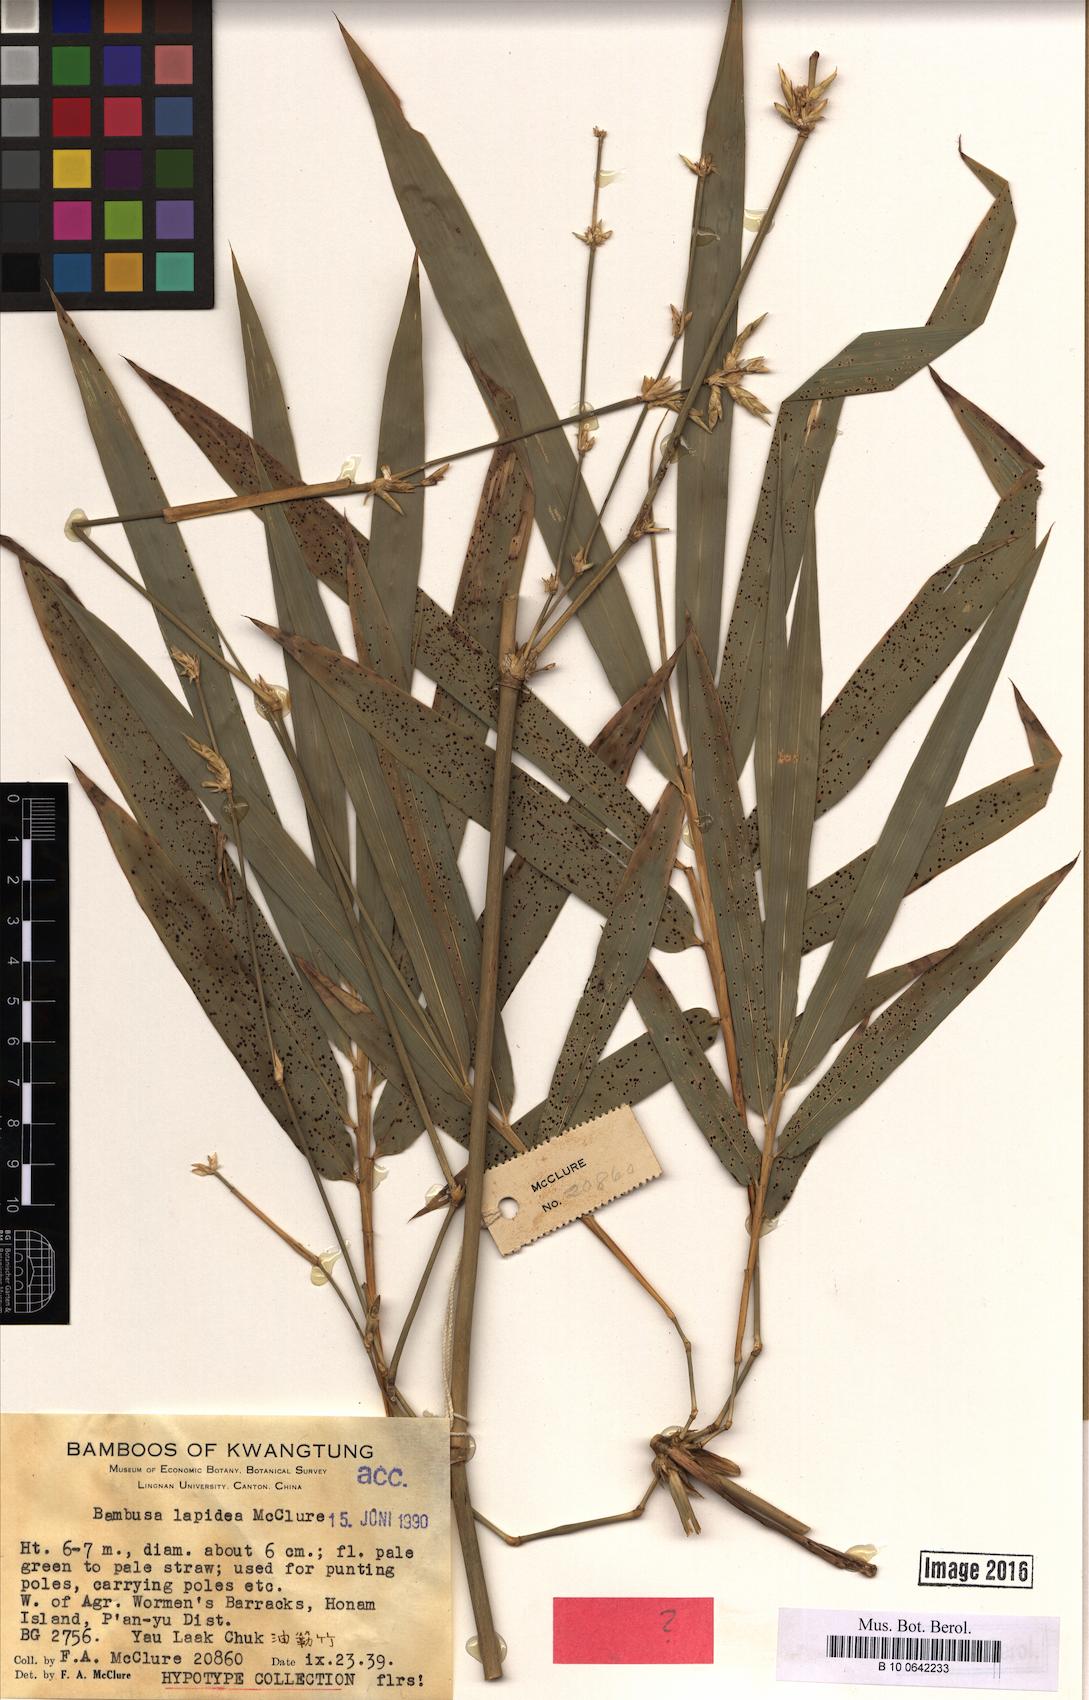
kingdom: Plantae
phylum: Tracheophyta
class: Liliopsida
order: Poales
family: Poaceae
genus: Bambusa
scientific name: Bambusa lapidea
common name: Horsehoof bamboo
